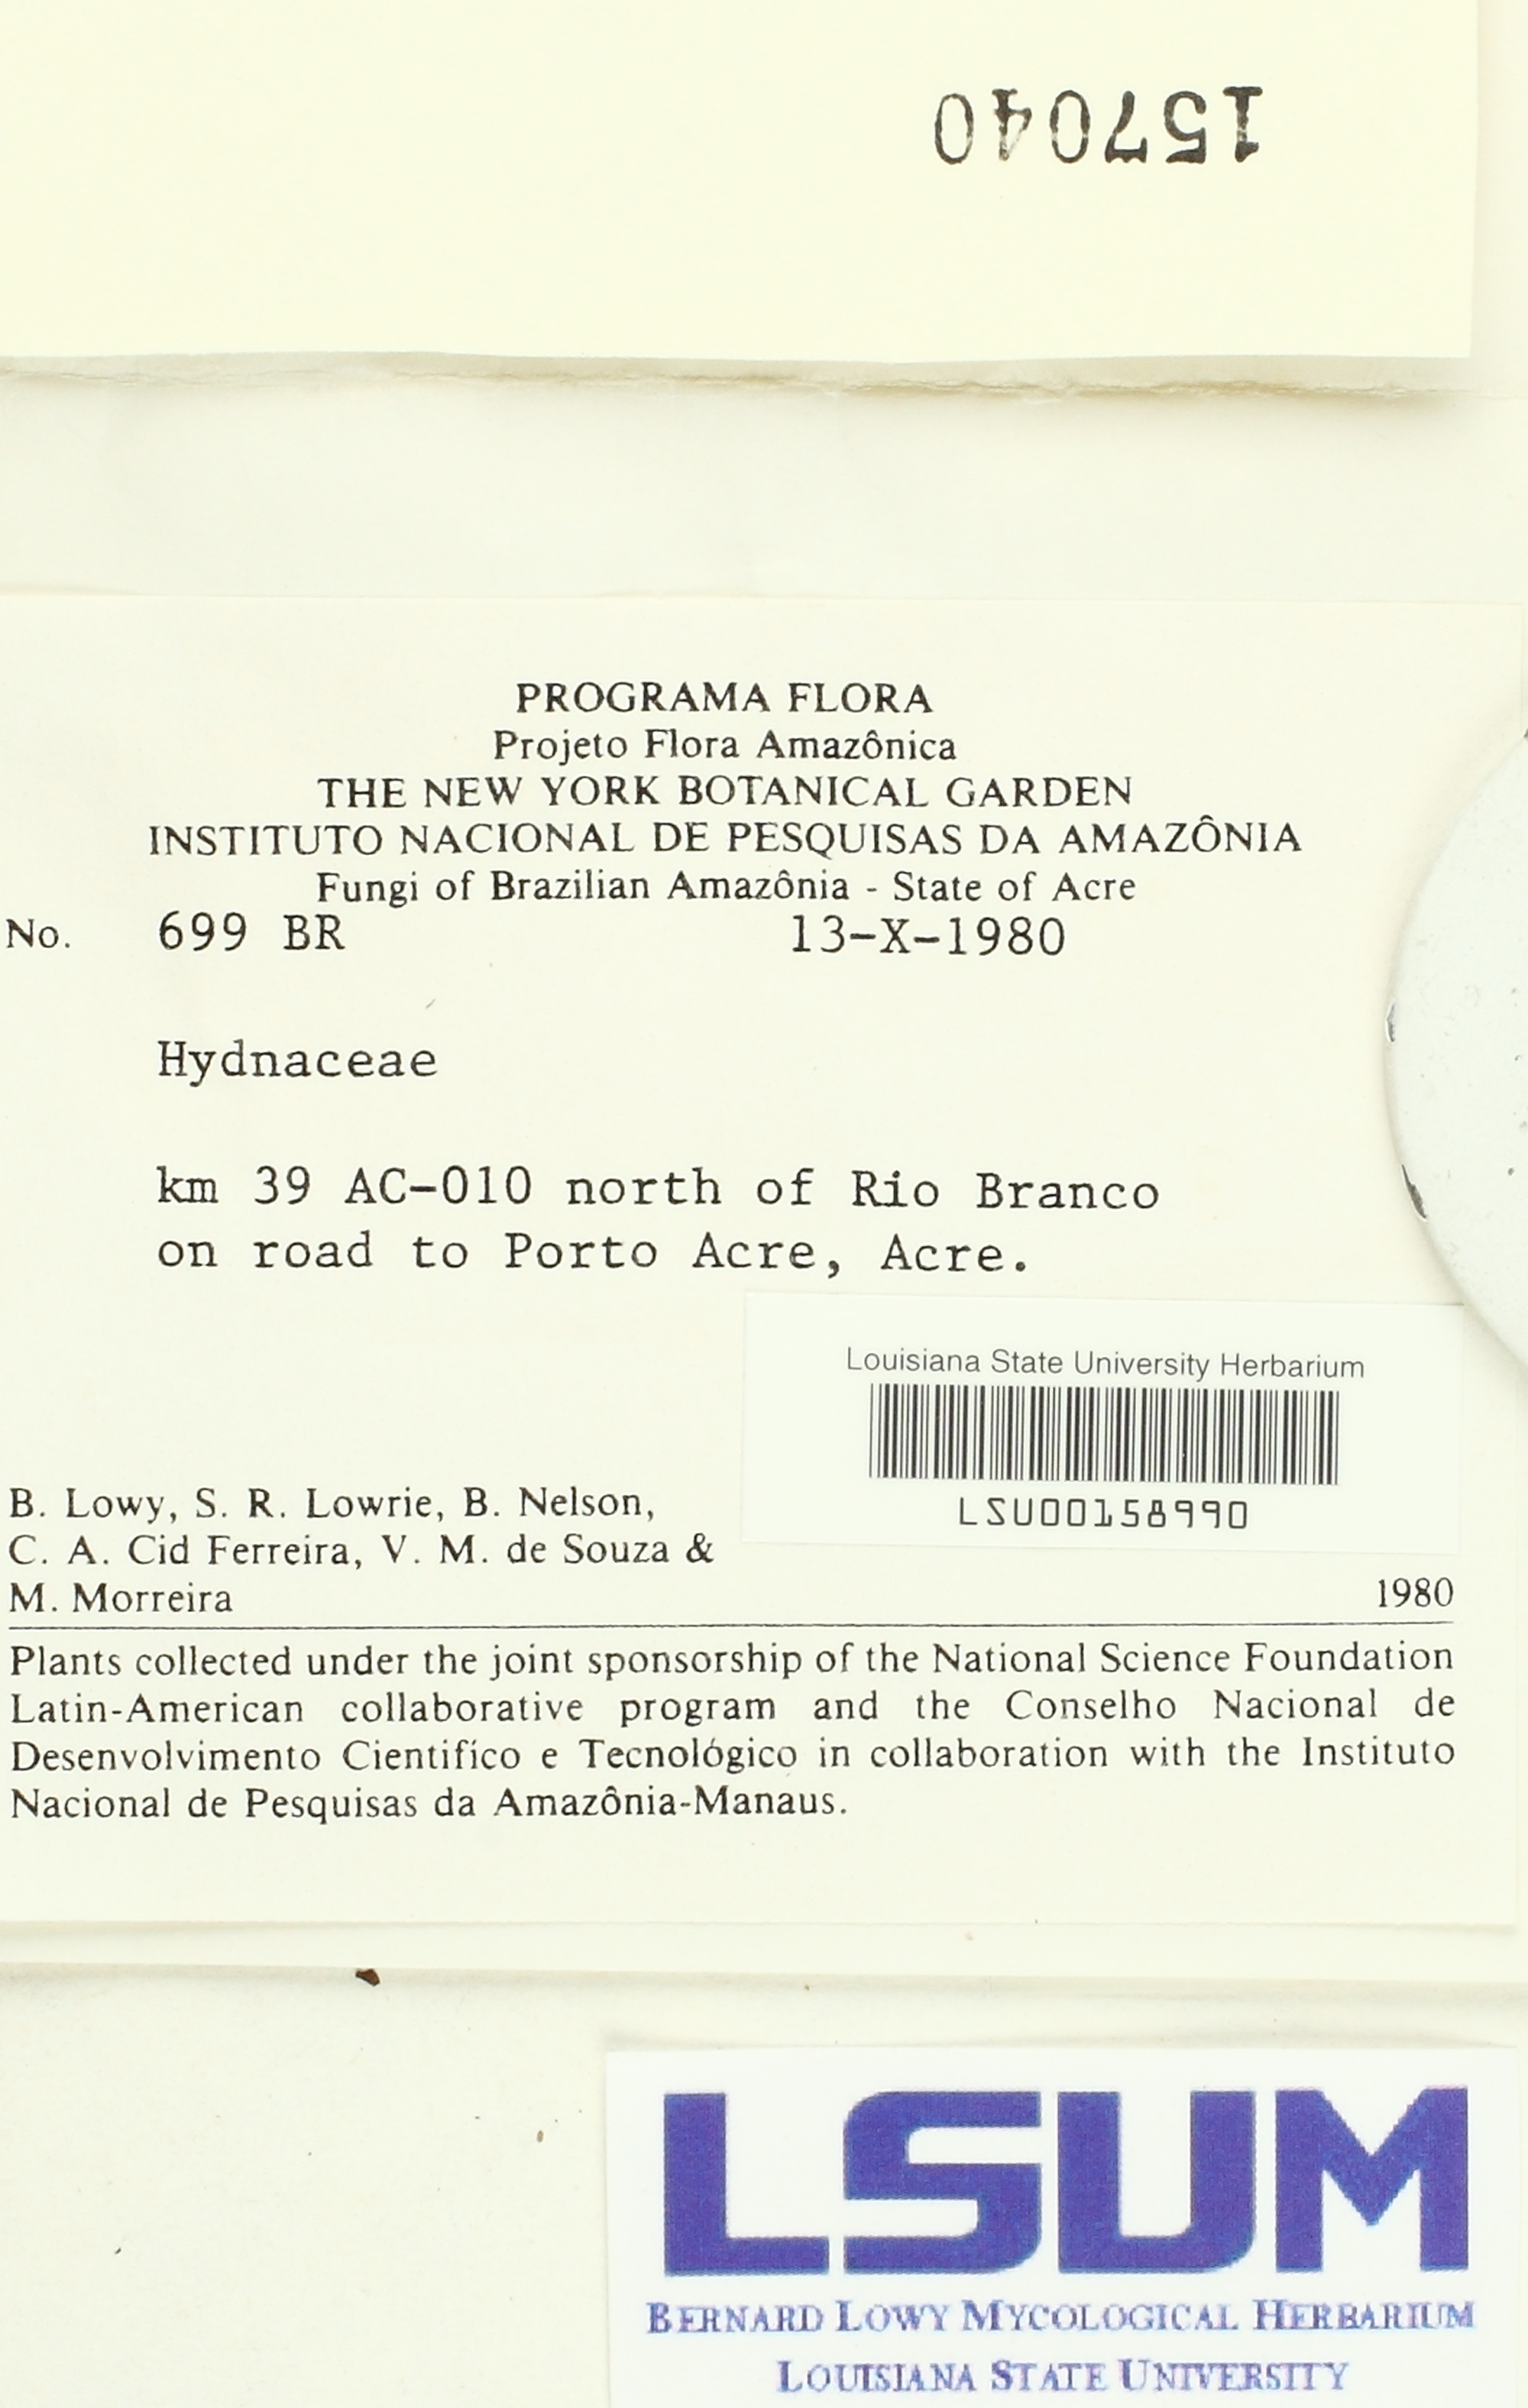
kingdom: Fungi
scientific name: Fungi
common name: Fungi
